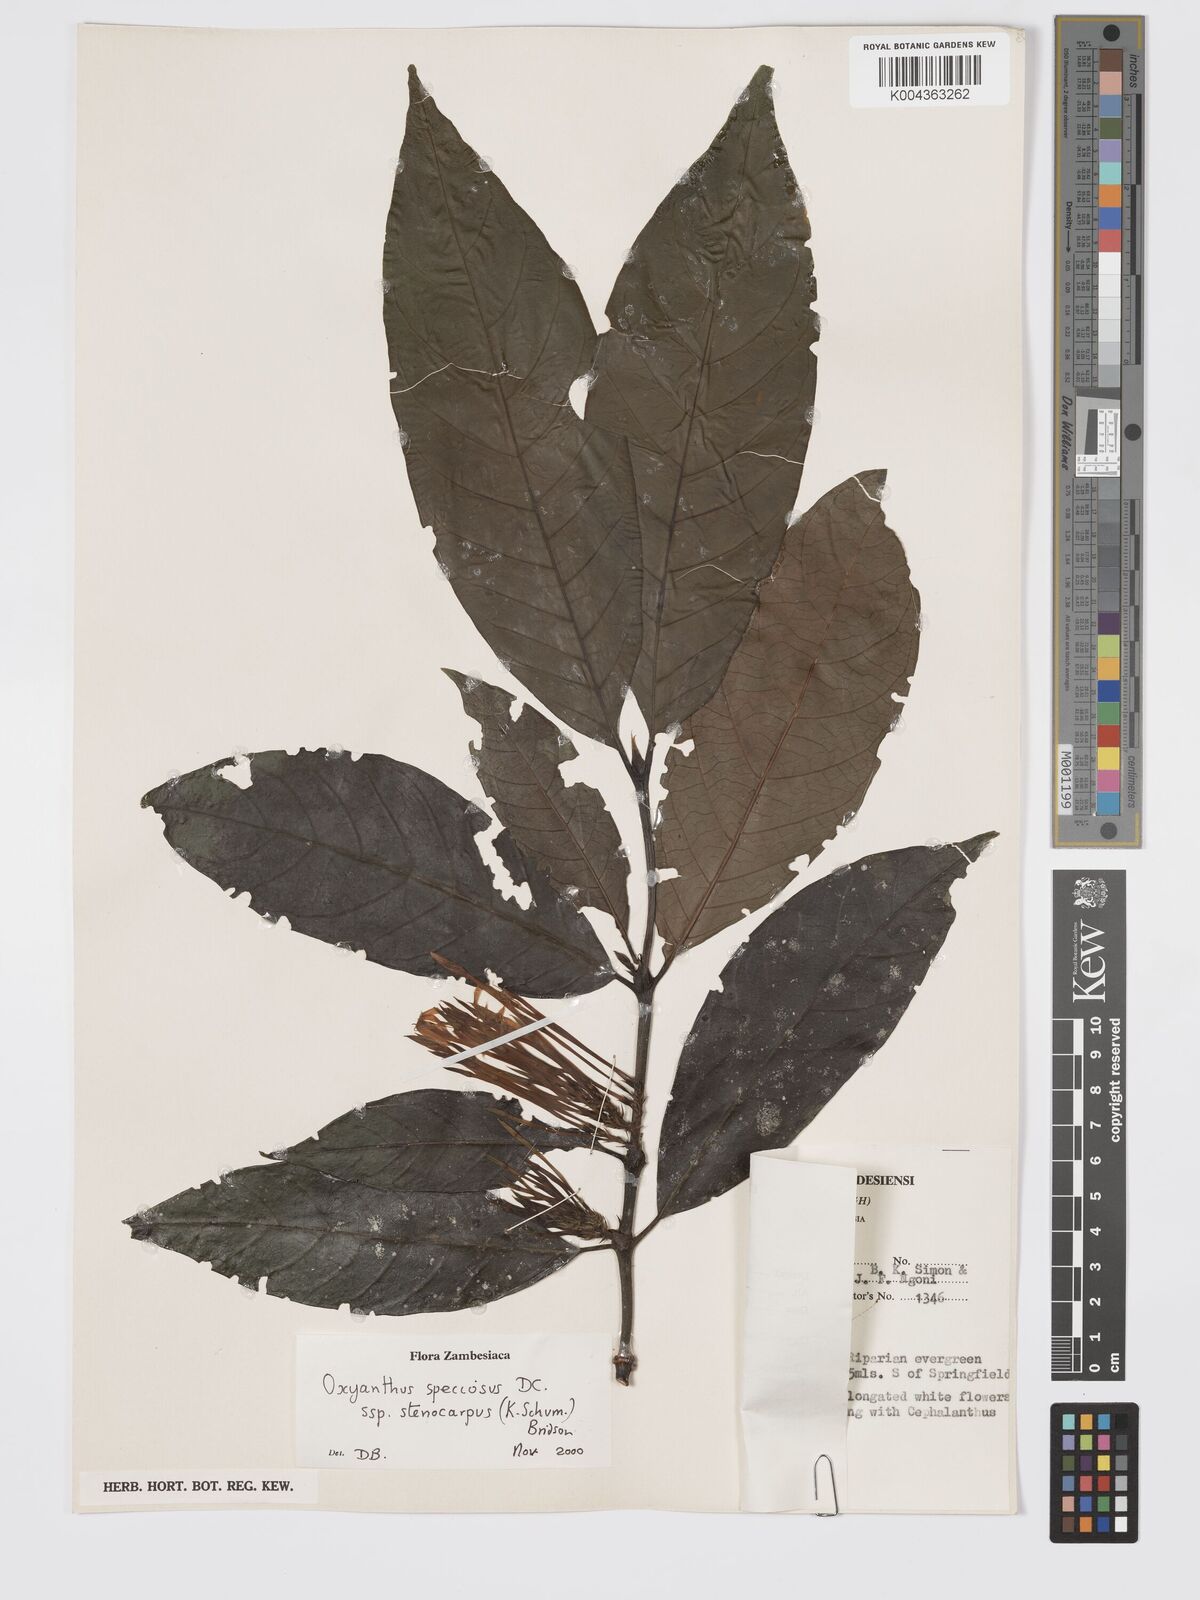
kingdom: Plantae
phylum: Tracheophyta
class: Magnoliopsida
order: Gentianales
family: Rubiaceae
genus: Oxyanthus
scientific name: Oxyanthus speciosus
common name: Whipstick loquat
